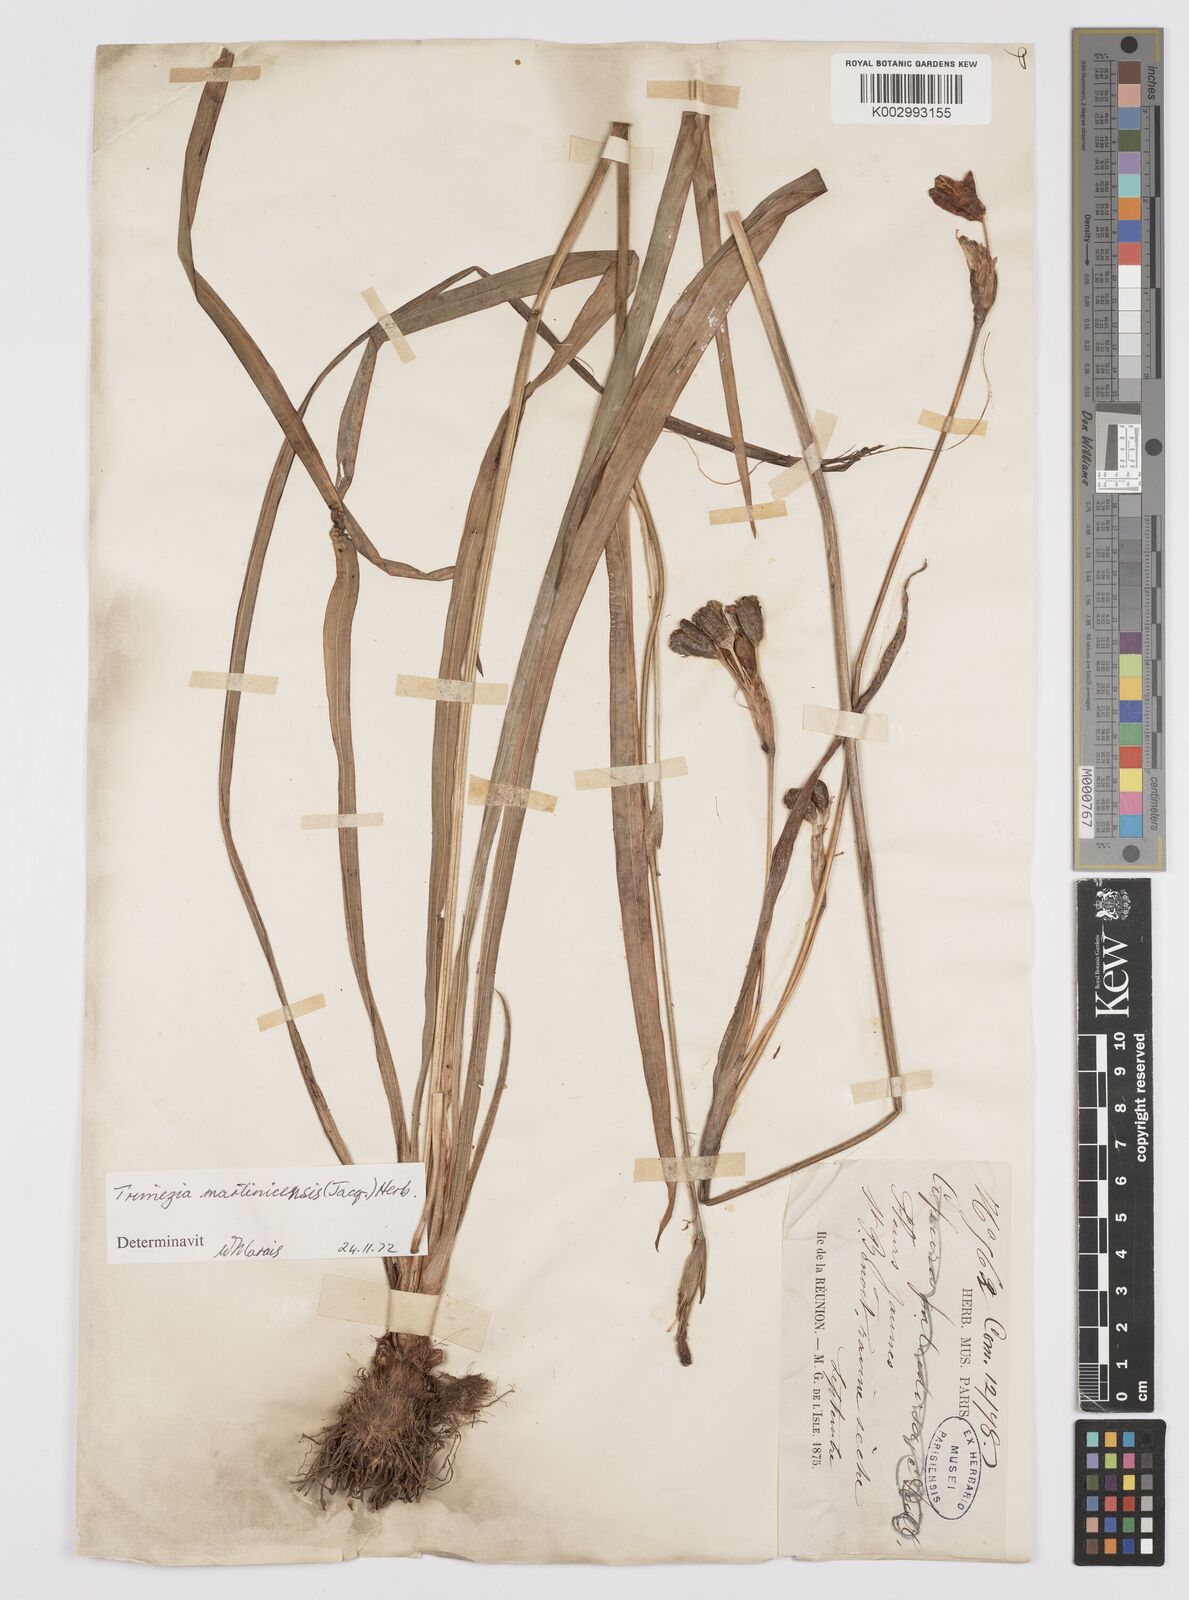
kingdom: Plantae
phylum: Tracheophyta
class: Liliopsida
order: Asparagales
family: Iridaceae
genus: Trimezia
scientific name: Trimezia martinicensis
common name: Martinique trimezia
